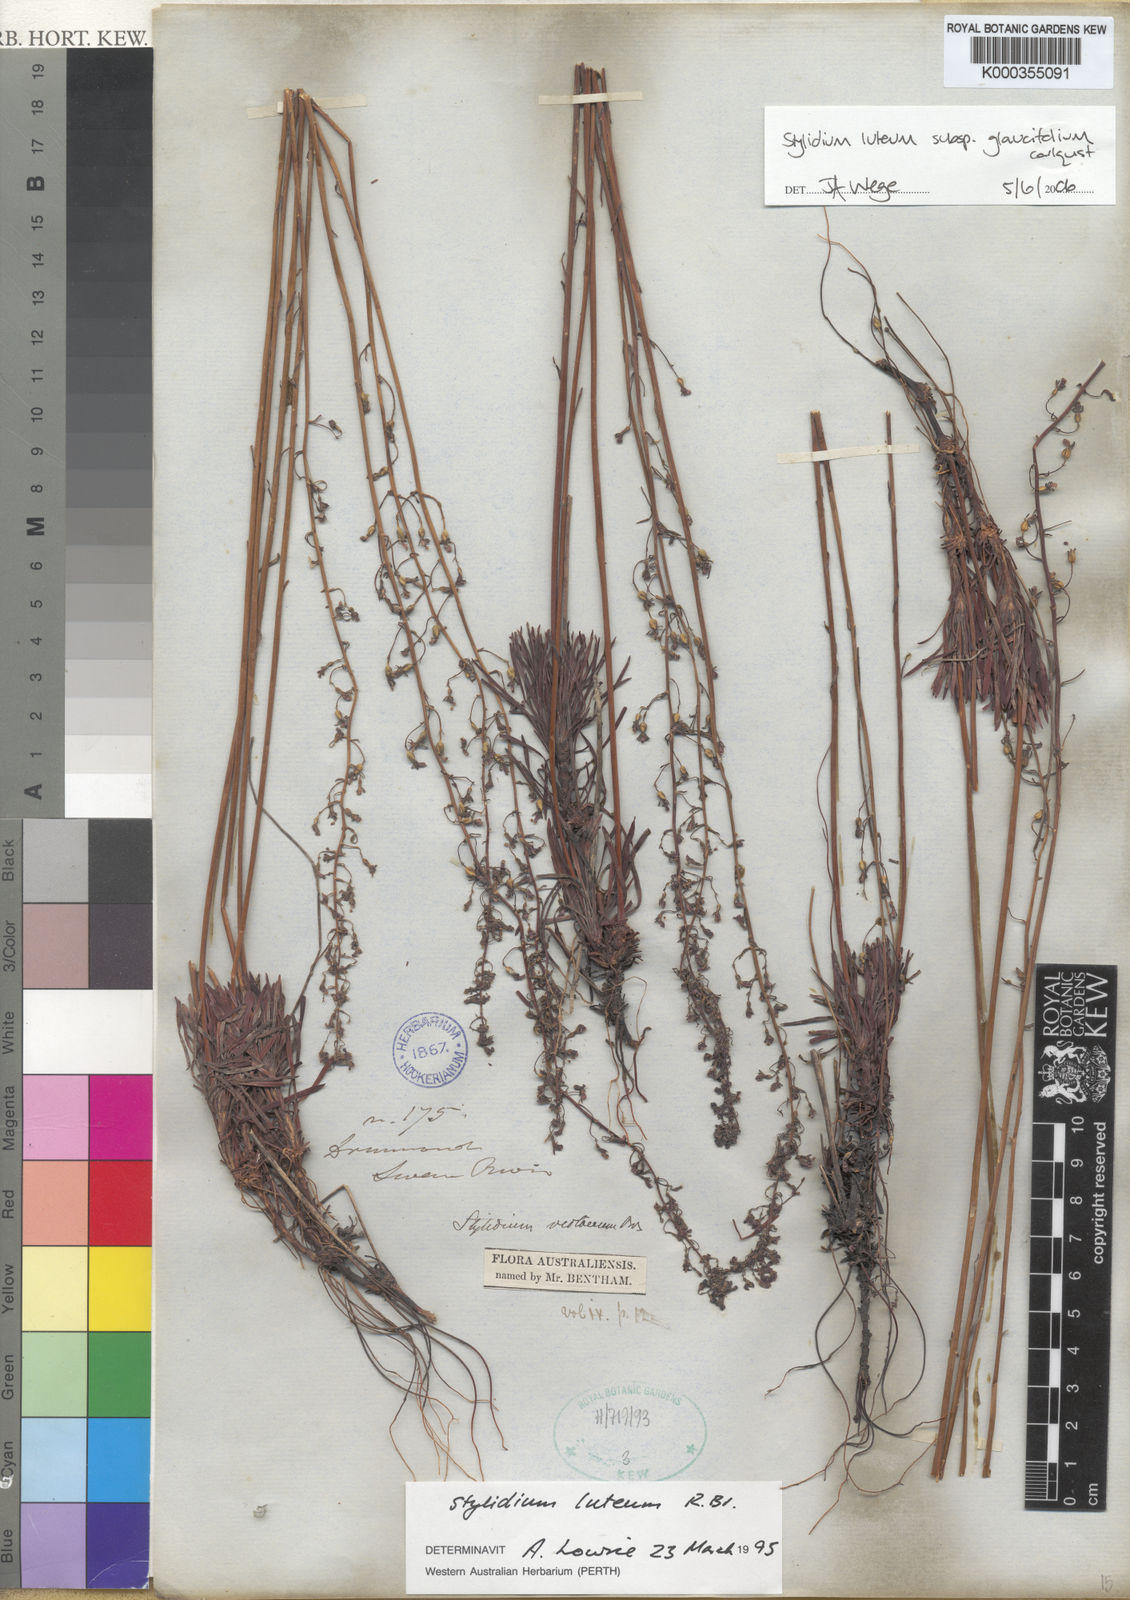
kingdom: Plantae
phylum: Tracheophyta
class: Magnoliopsida
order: Asterales
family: Stylidiaceae
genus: Stylidium
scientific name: Stylidium
